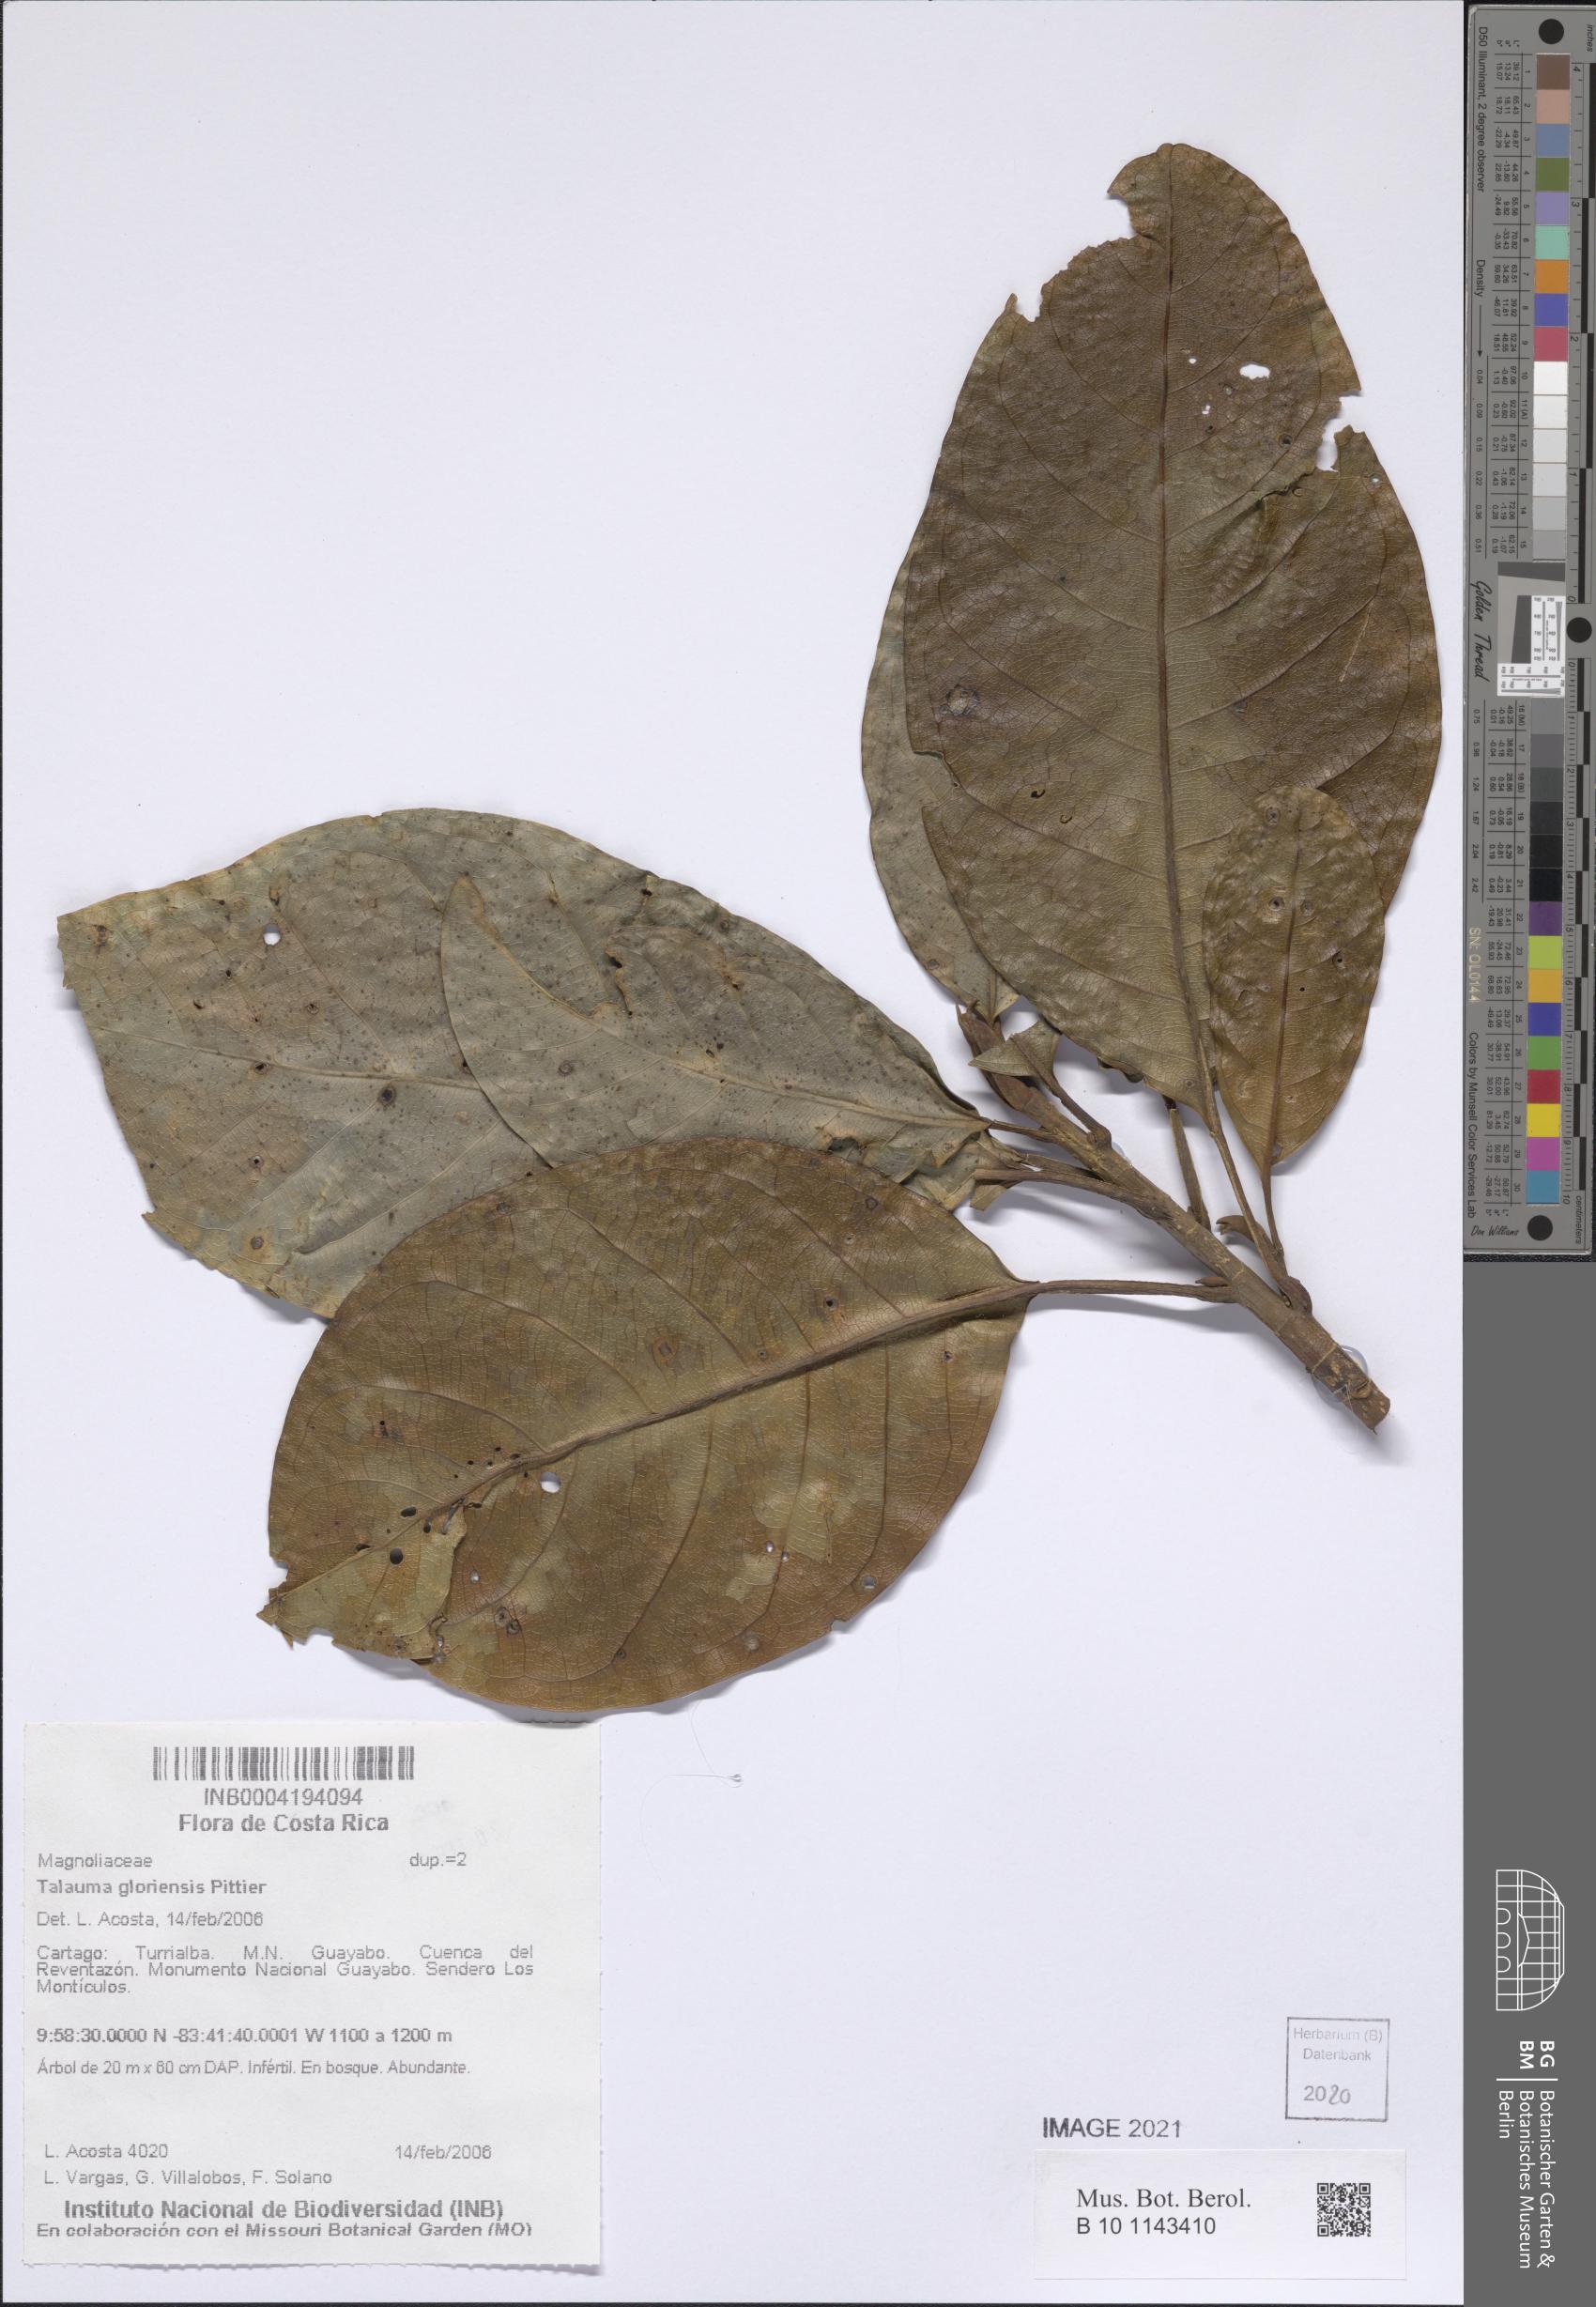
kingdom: Plantae
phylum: Tracheophyta
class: Magnoliopsida
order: Magnoliales
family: Magnoliaceae
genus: Magnolia
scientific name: Magnolia gloriensis
